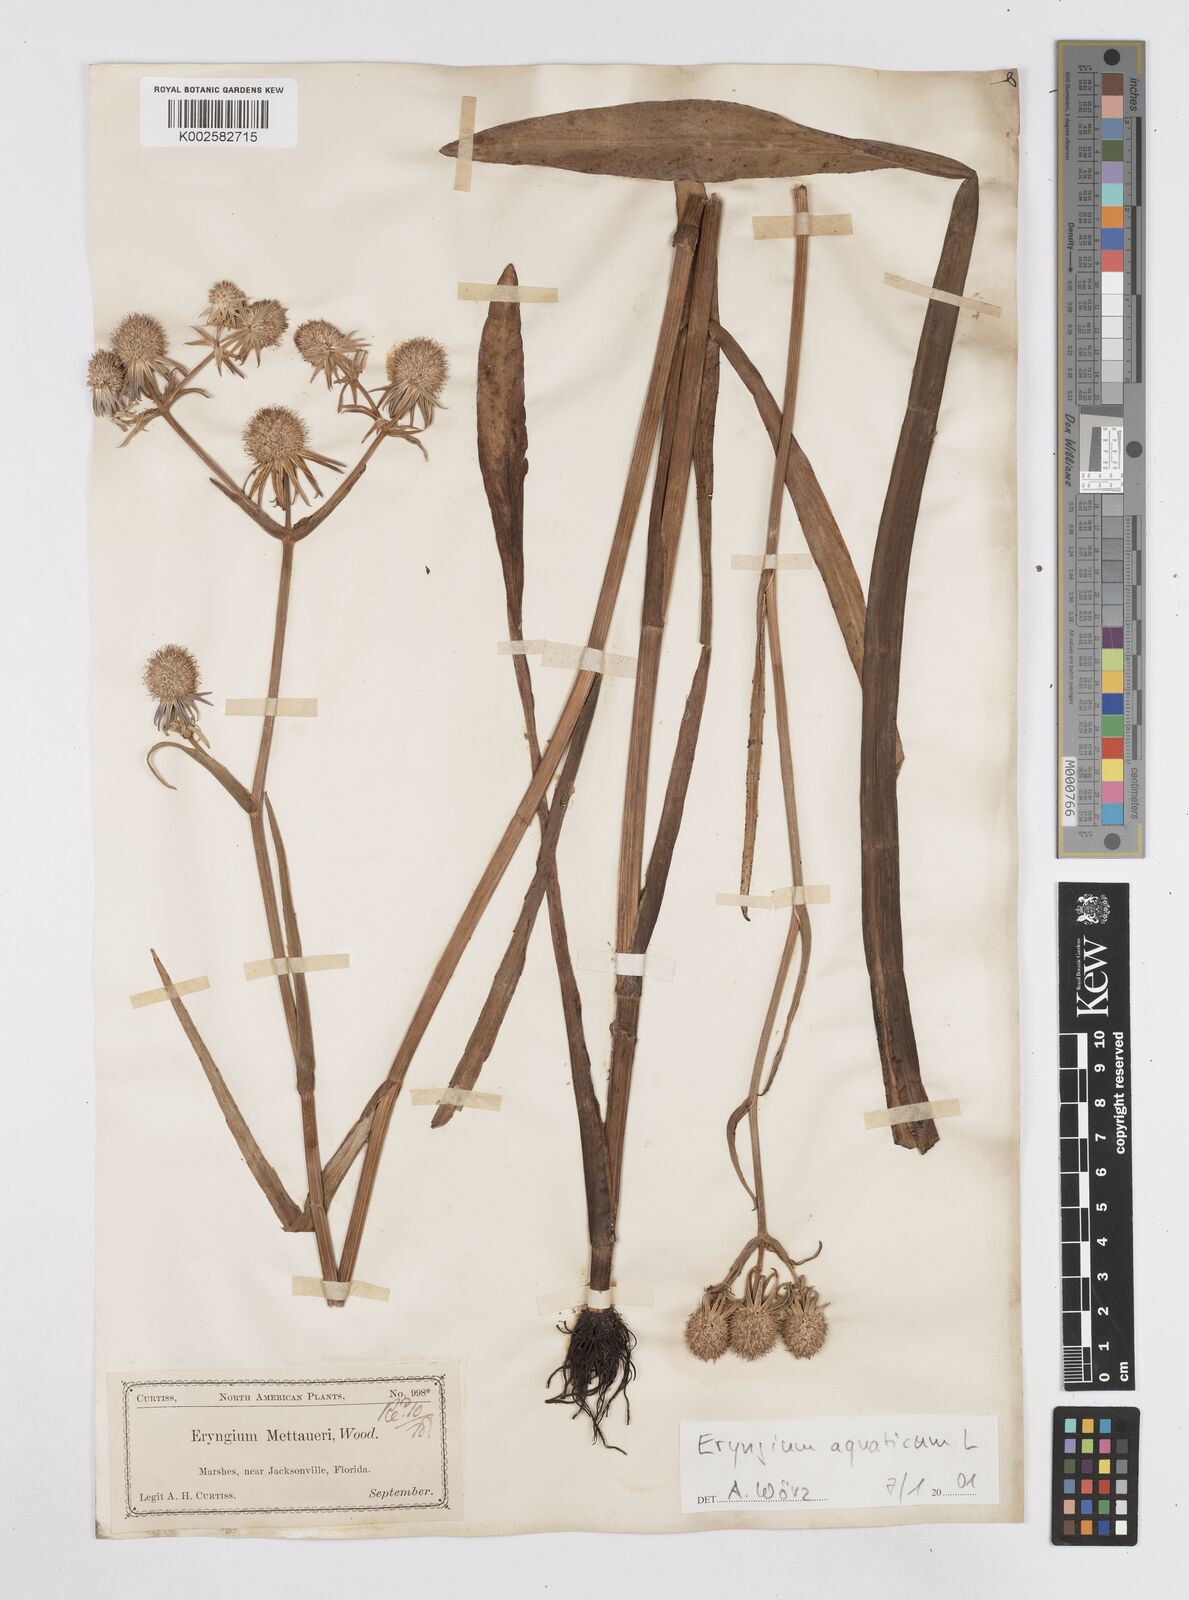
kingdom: Plantae
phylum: Tracheophyta
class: Magnoliopsida
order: Apiales
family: Apiaceae
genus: Eryngium
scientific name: Eryngium aquaticum
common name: Water eryngo
